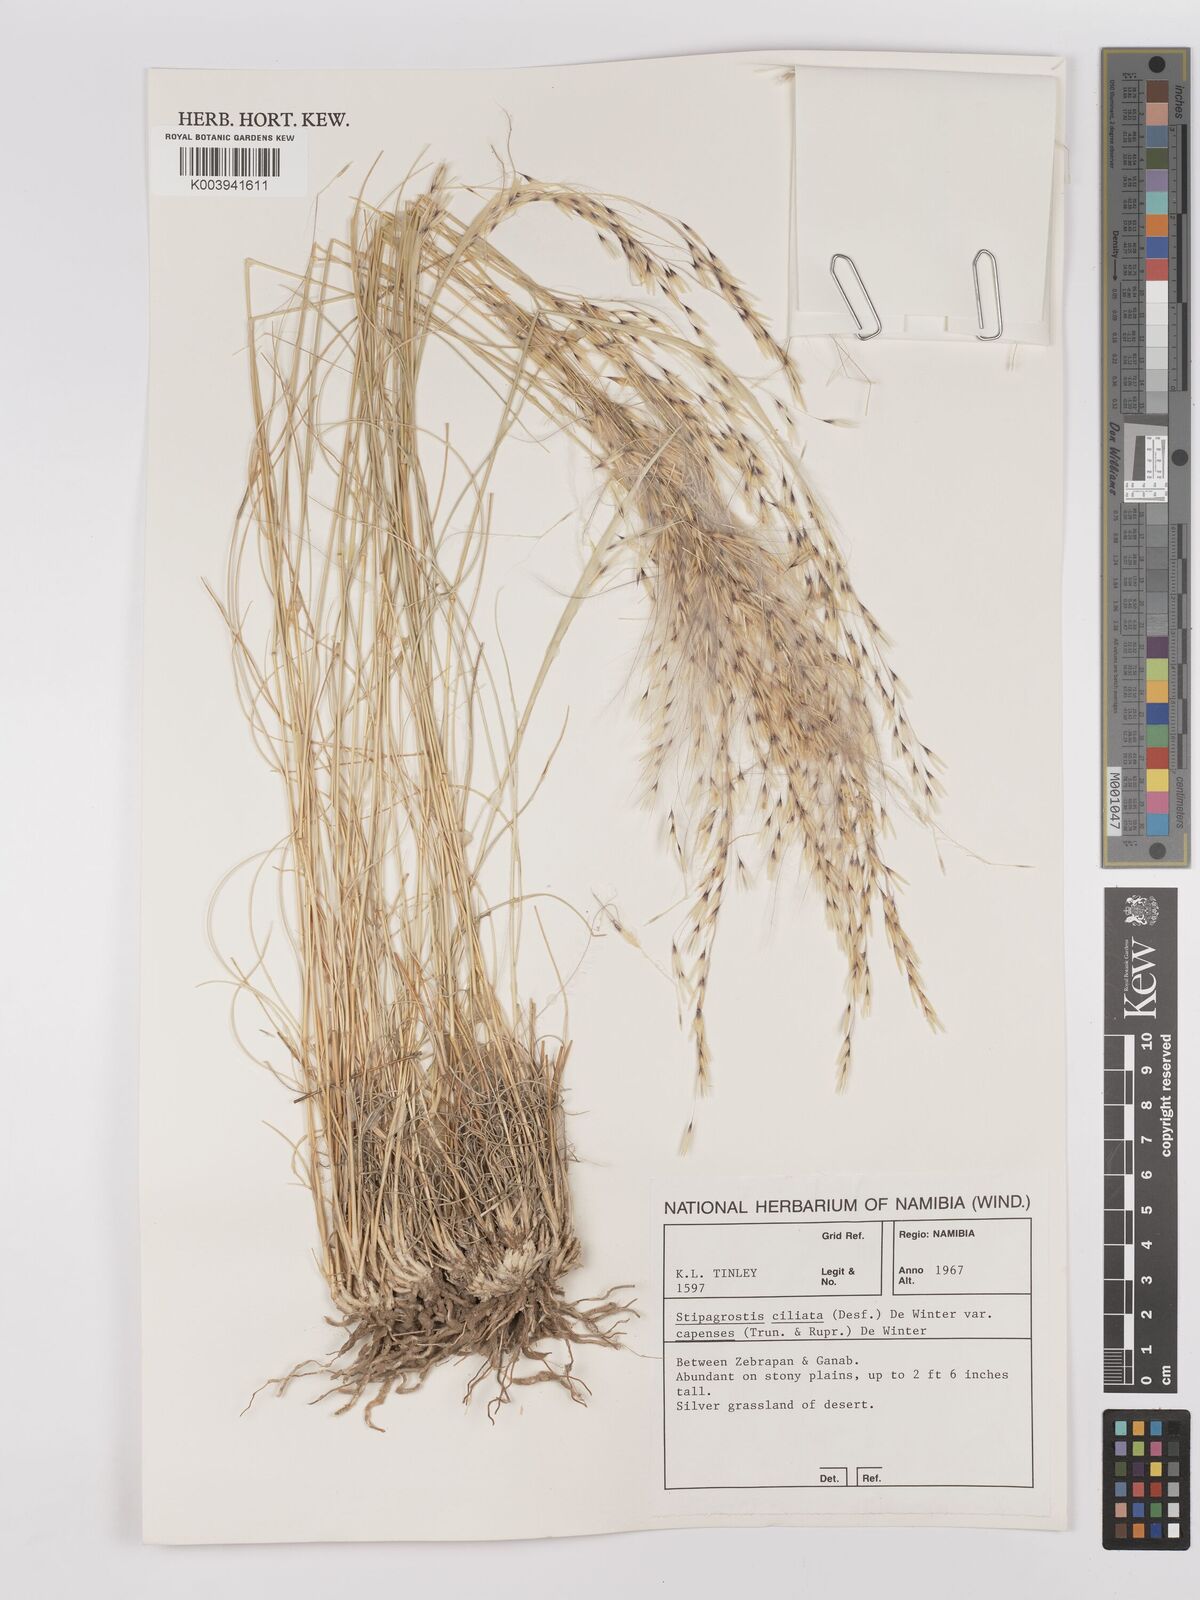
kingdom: Plantae
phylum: Tracheophyta
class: Liliopsida
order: Poales
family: Poaceae
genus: Stipagrostis
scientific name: Stipagrostis ciliata
